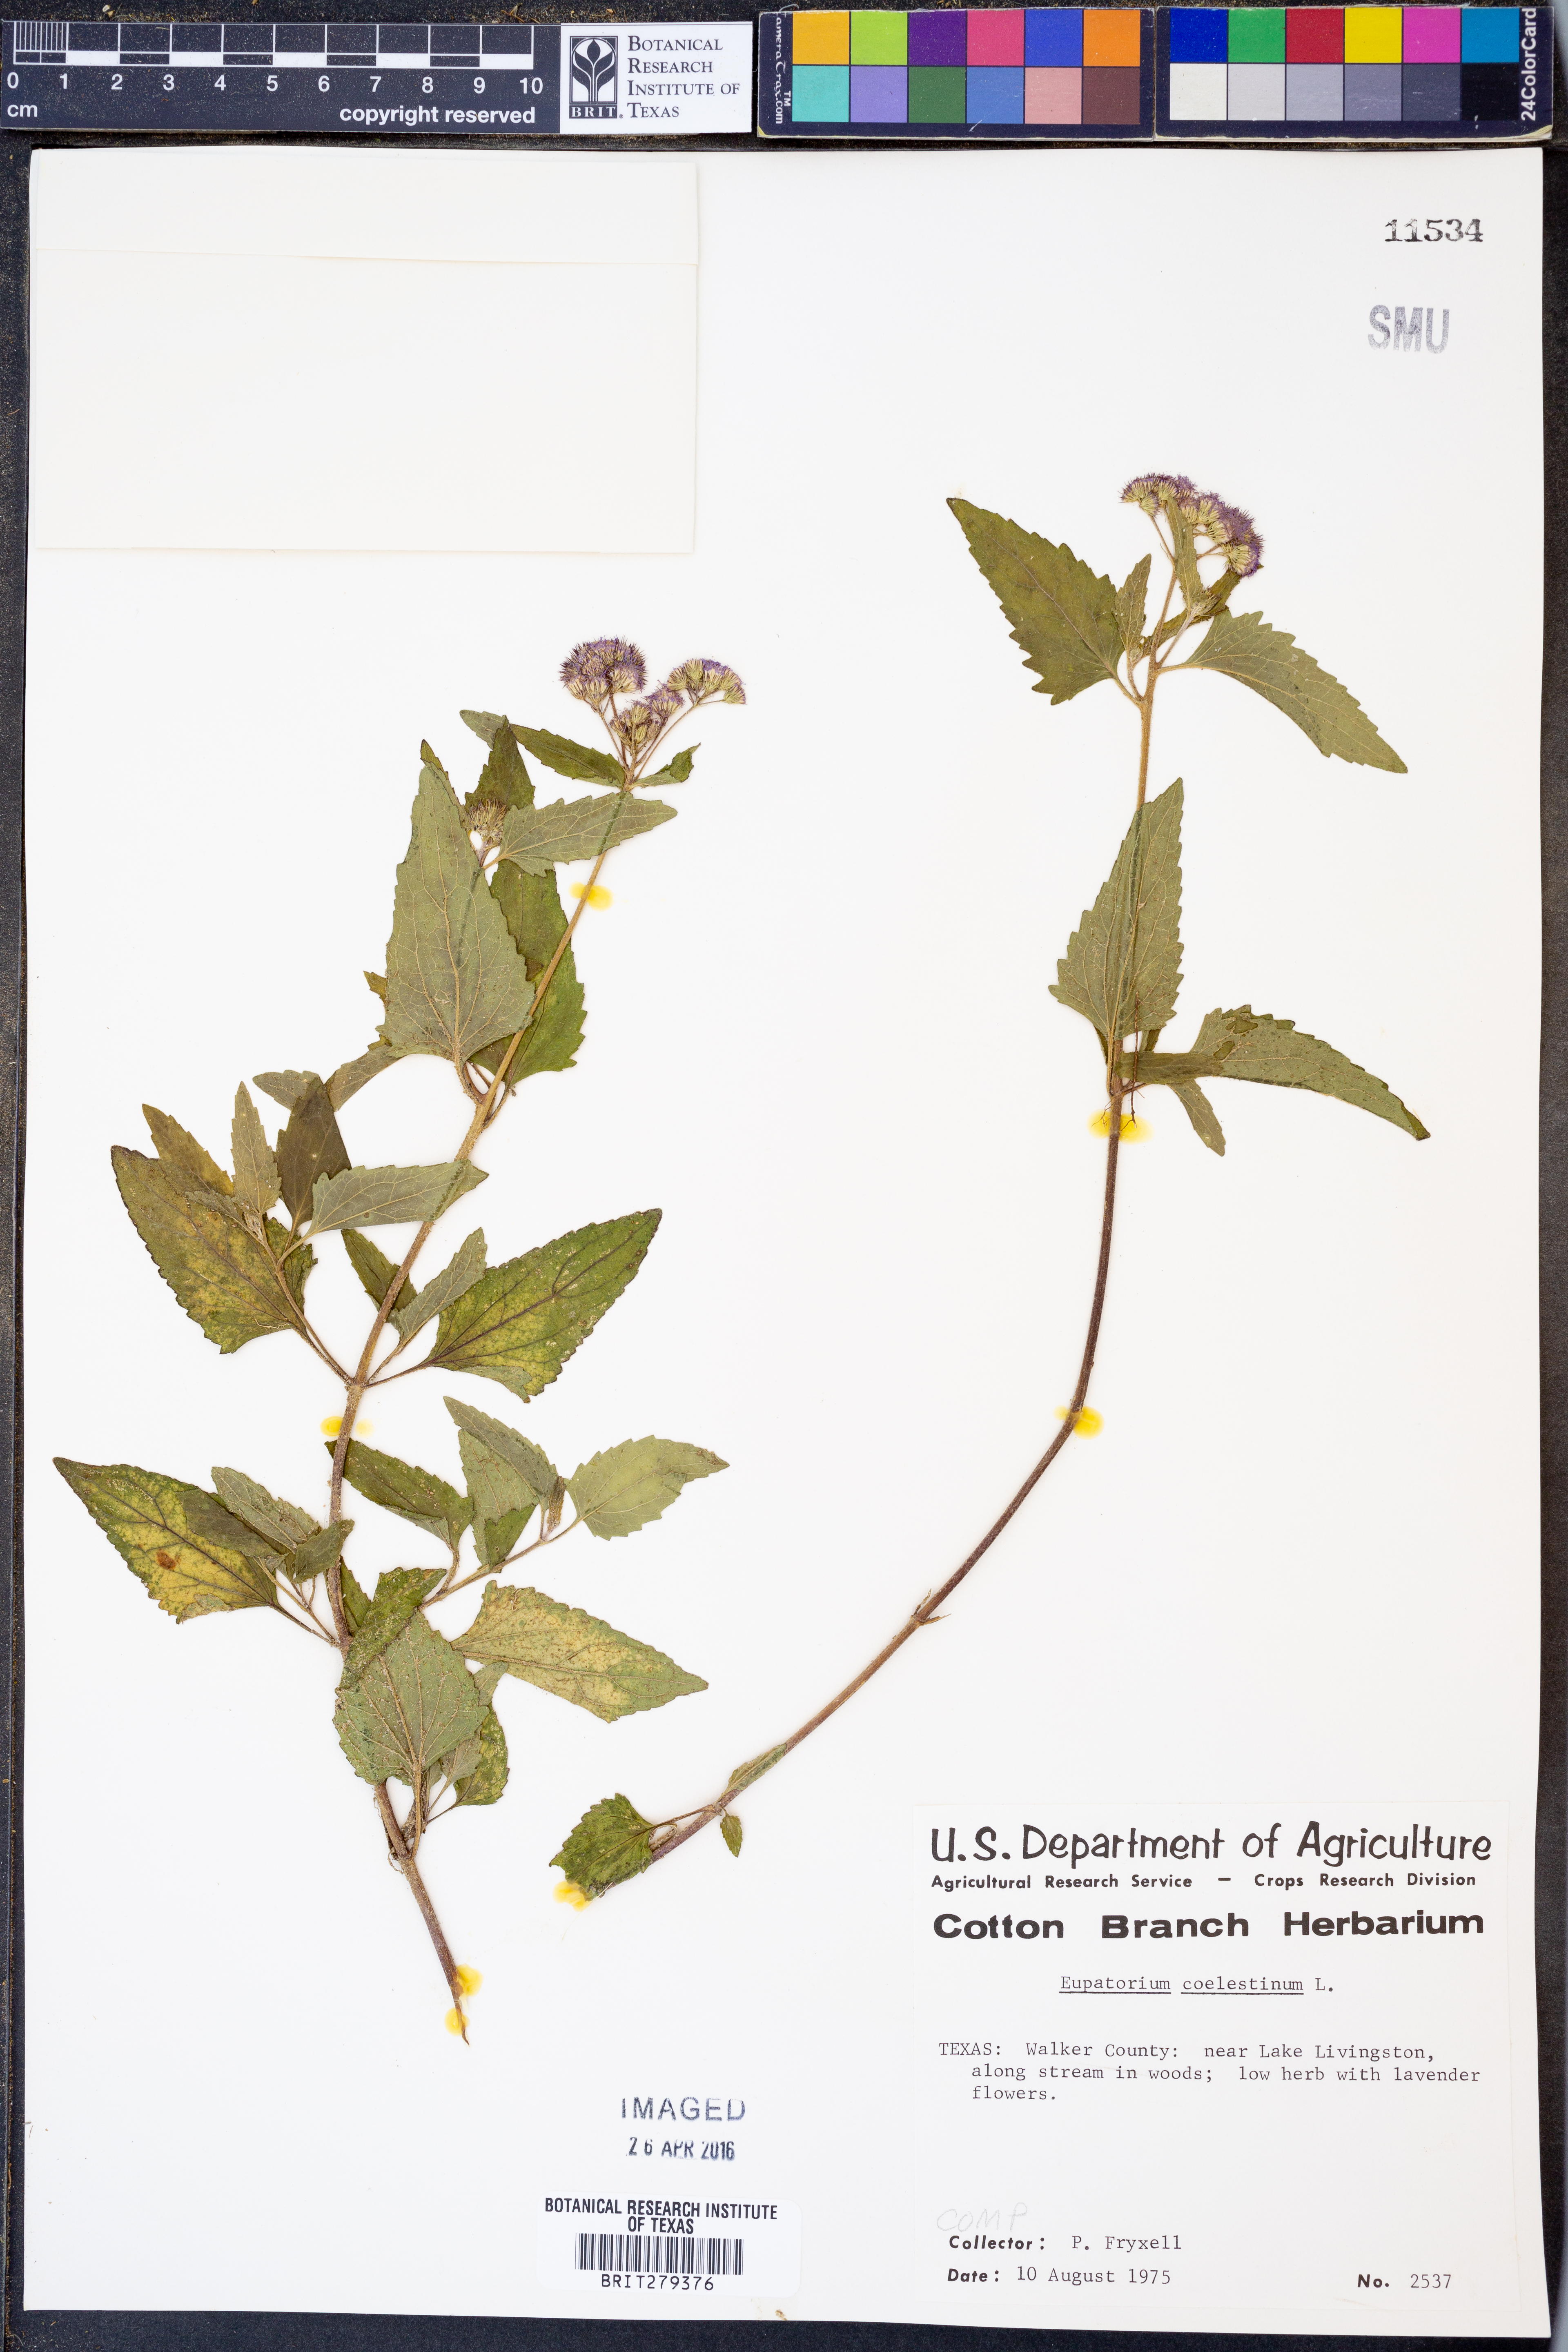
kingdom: Plantae
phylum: Tracheophyta
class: Magnoliopsida
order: Asterales
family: Asteraceae
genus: Conoclinium
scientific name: Conoclinium coelestinum
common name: Blue mistflower
